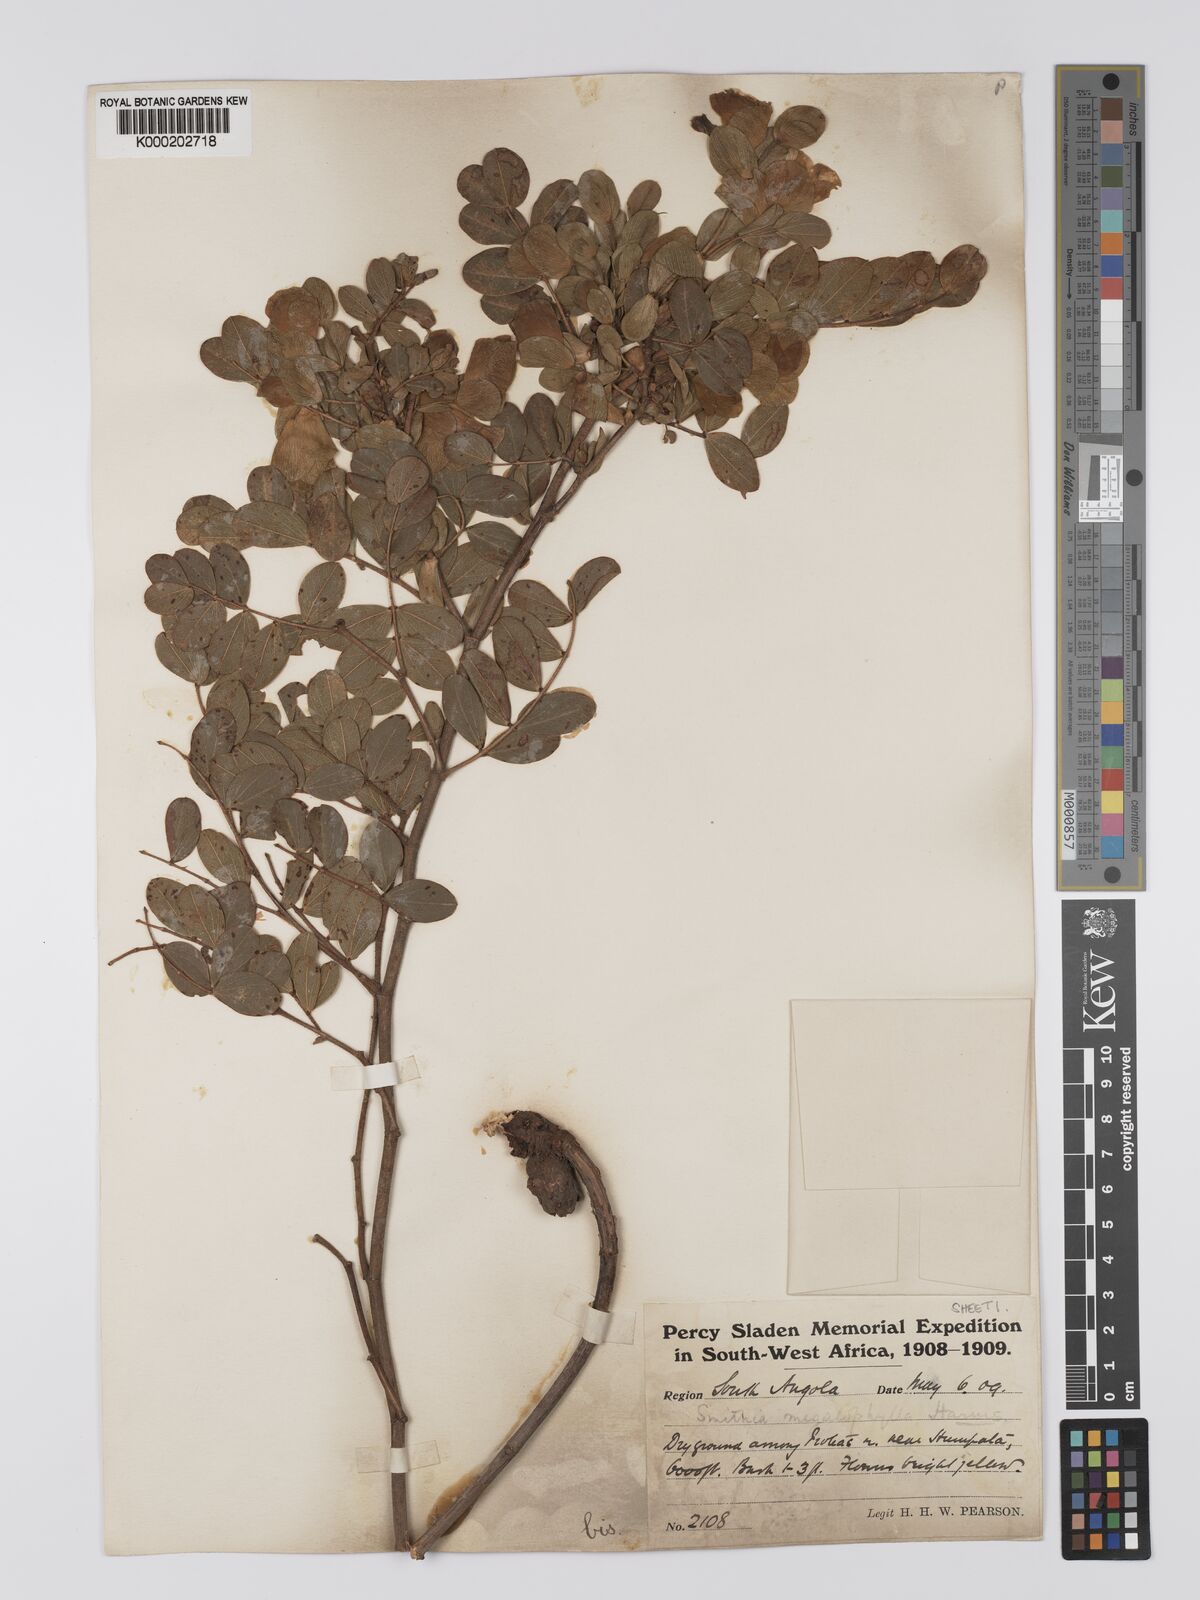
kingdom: Plantae
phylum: Tracheophyta
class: Magnoliopsida
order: Fabales
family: Fabaceae
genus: Humularia
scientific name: Humularia welwitschii
